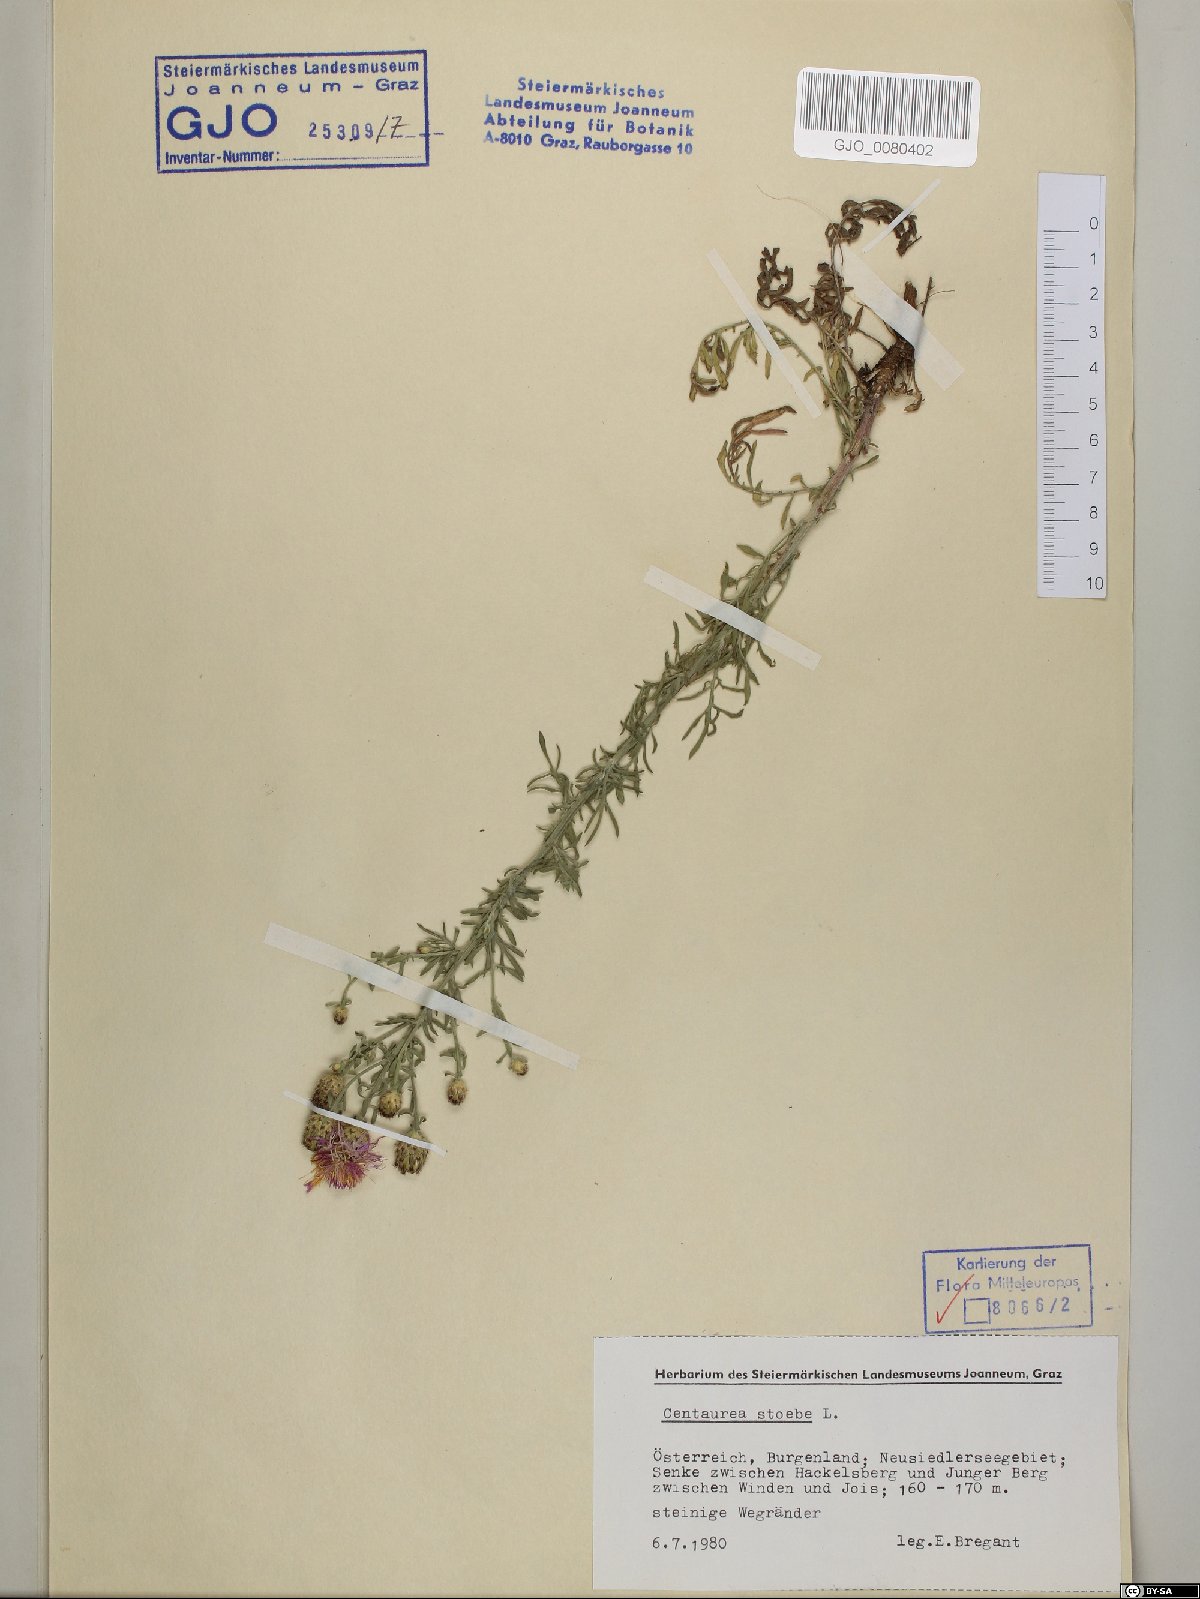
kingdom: Plantae
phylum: Tracheophyta
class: Magnoliopsida
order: Asterales
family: Asteraceae
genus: Centaurea
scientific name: Centaurea stoebe
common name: Spotted knapweed
